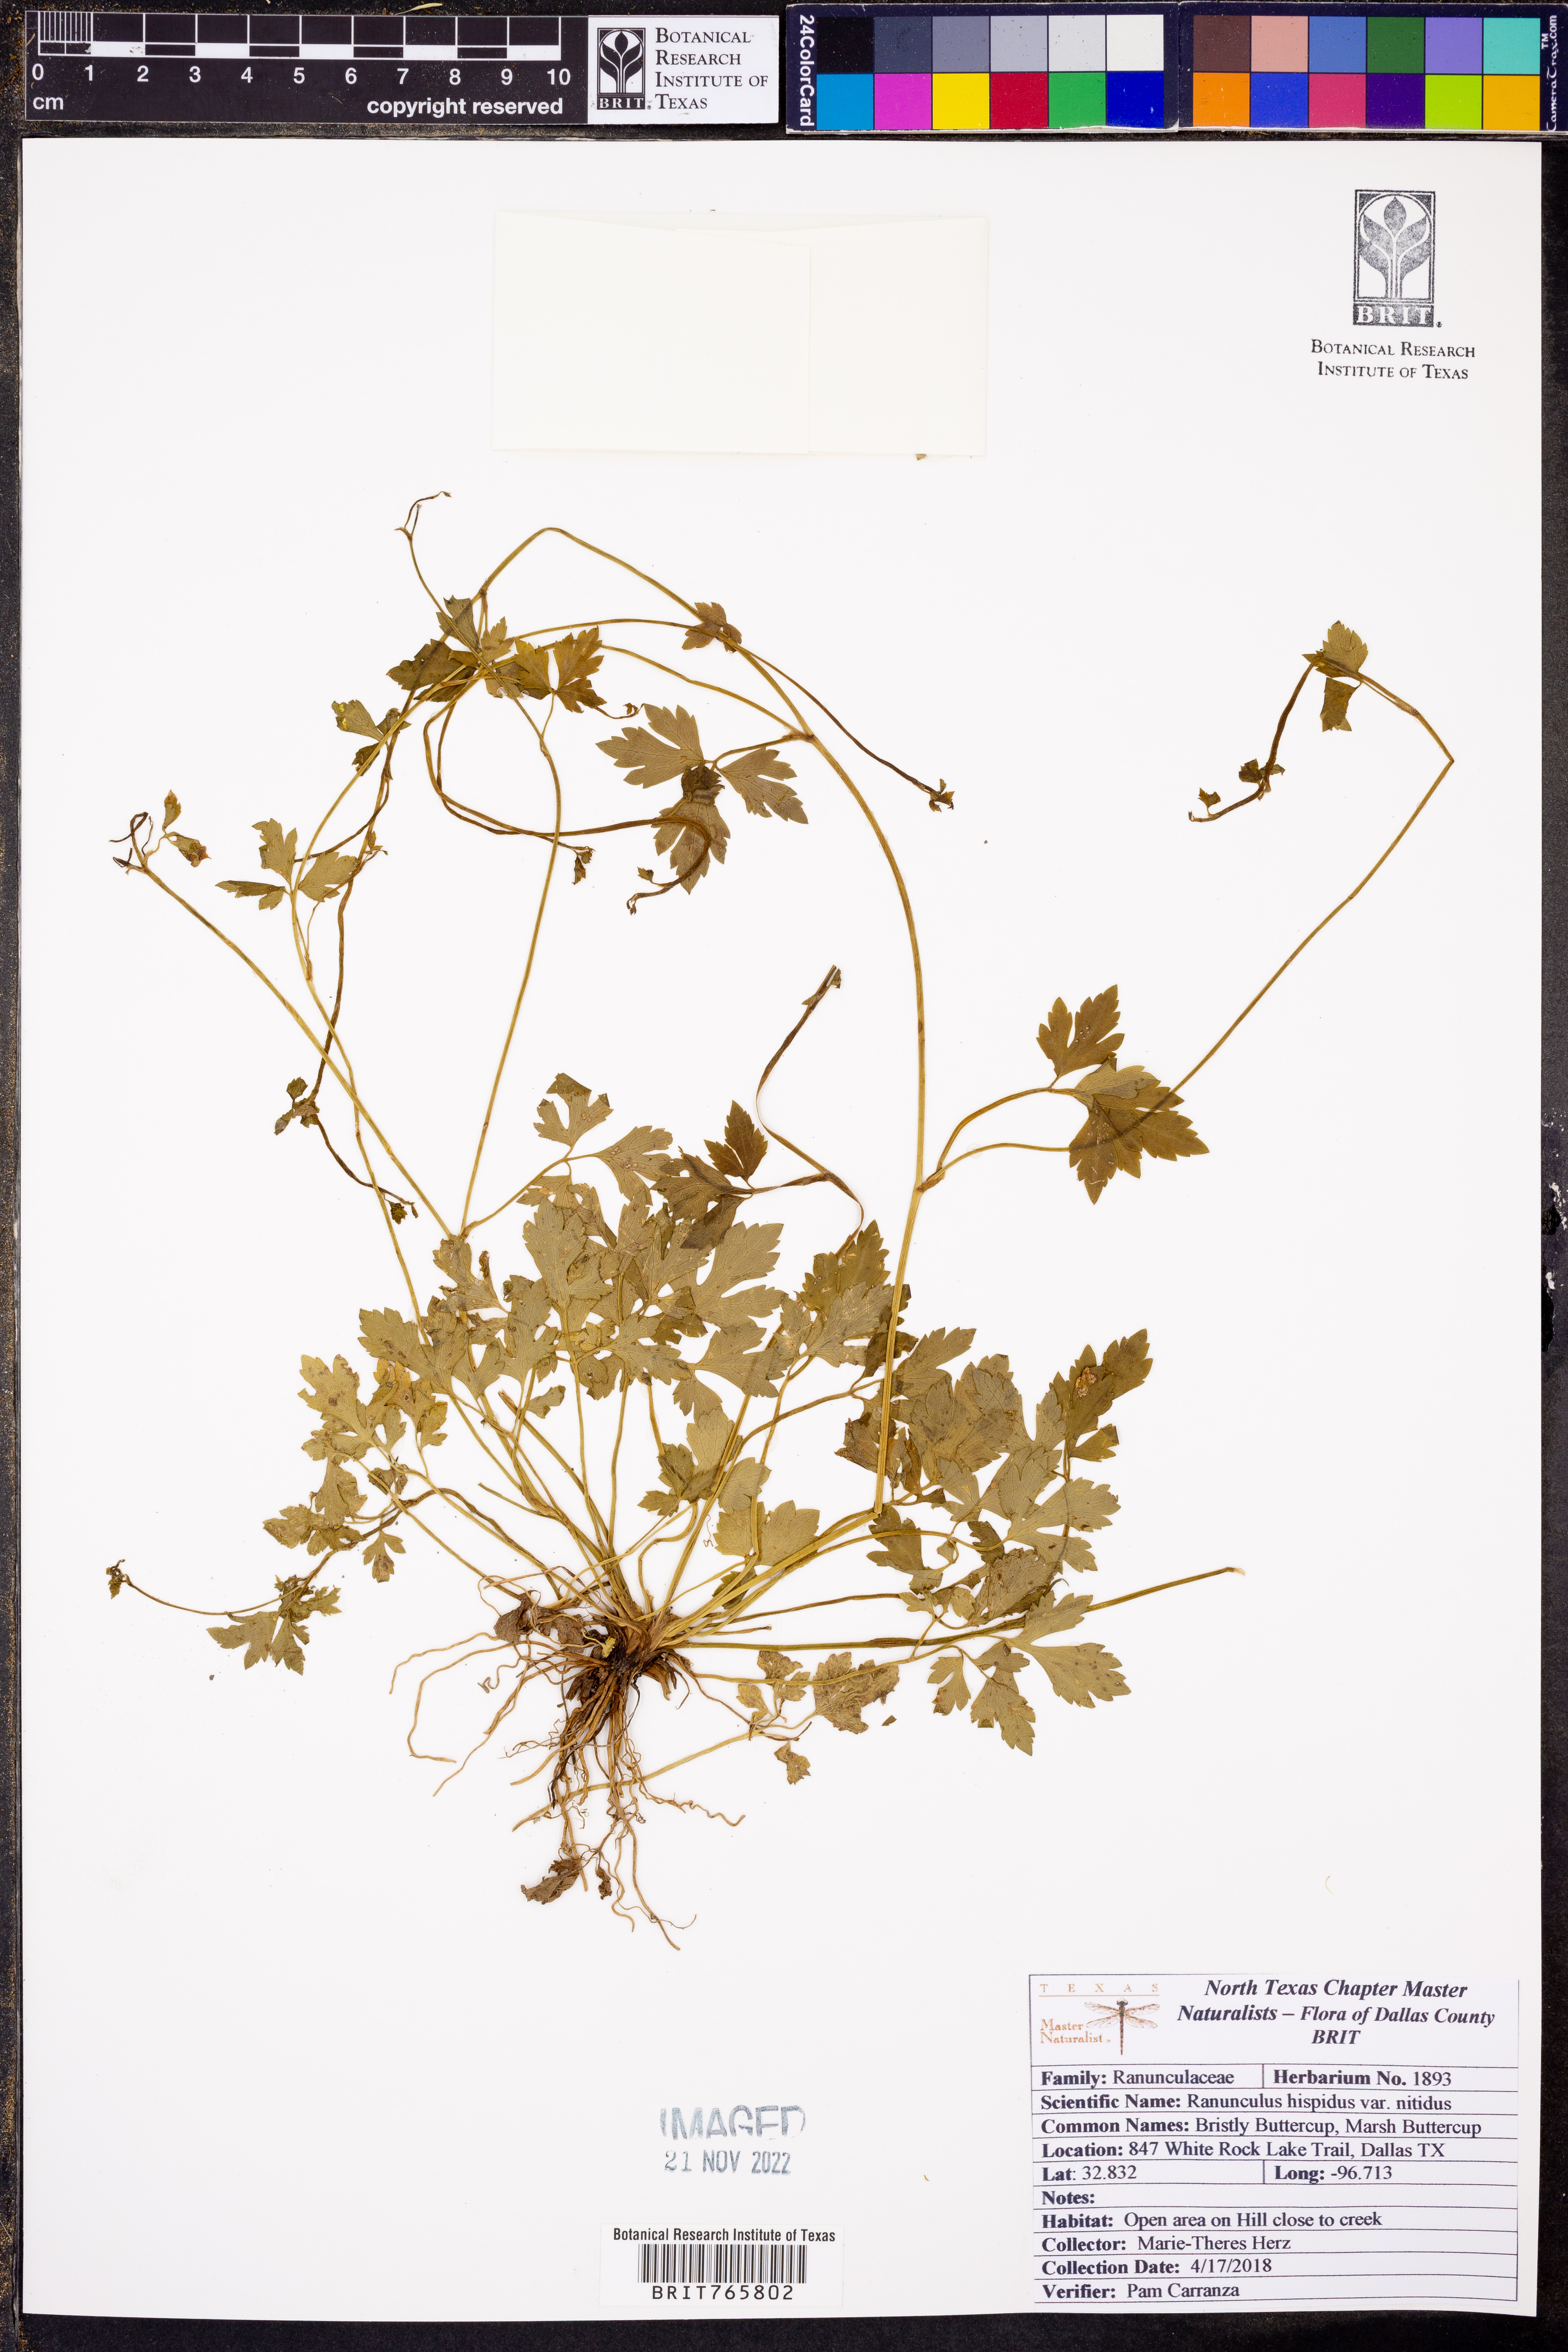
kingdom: Plantae
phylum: Tracheophyta
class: Magnoliopsida
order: Ranunculales
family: Ranunculaceae
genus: Ranunculus
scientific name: Ranunculus hispidus
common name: Bristly buttercup
